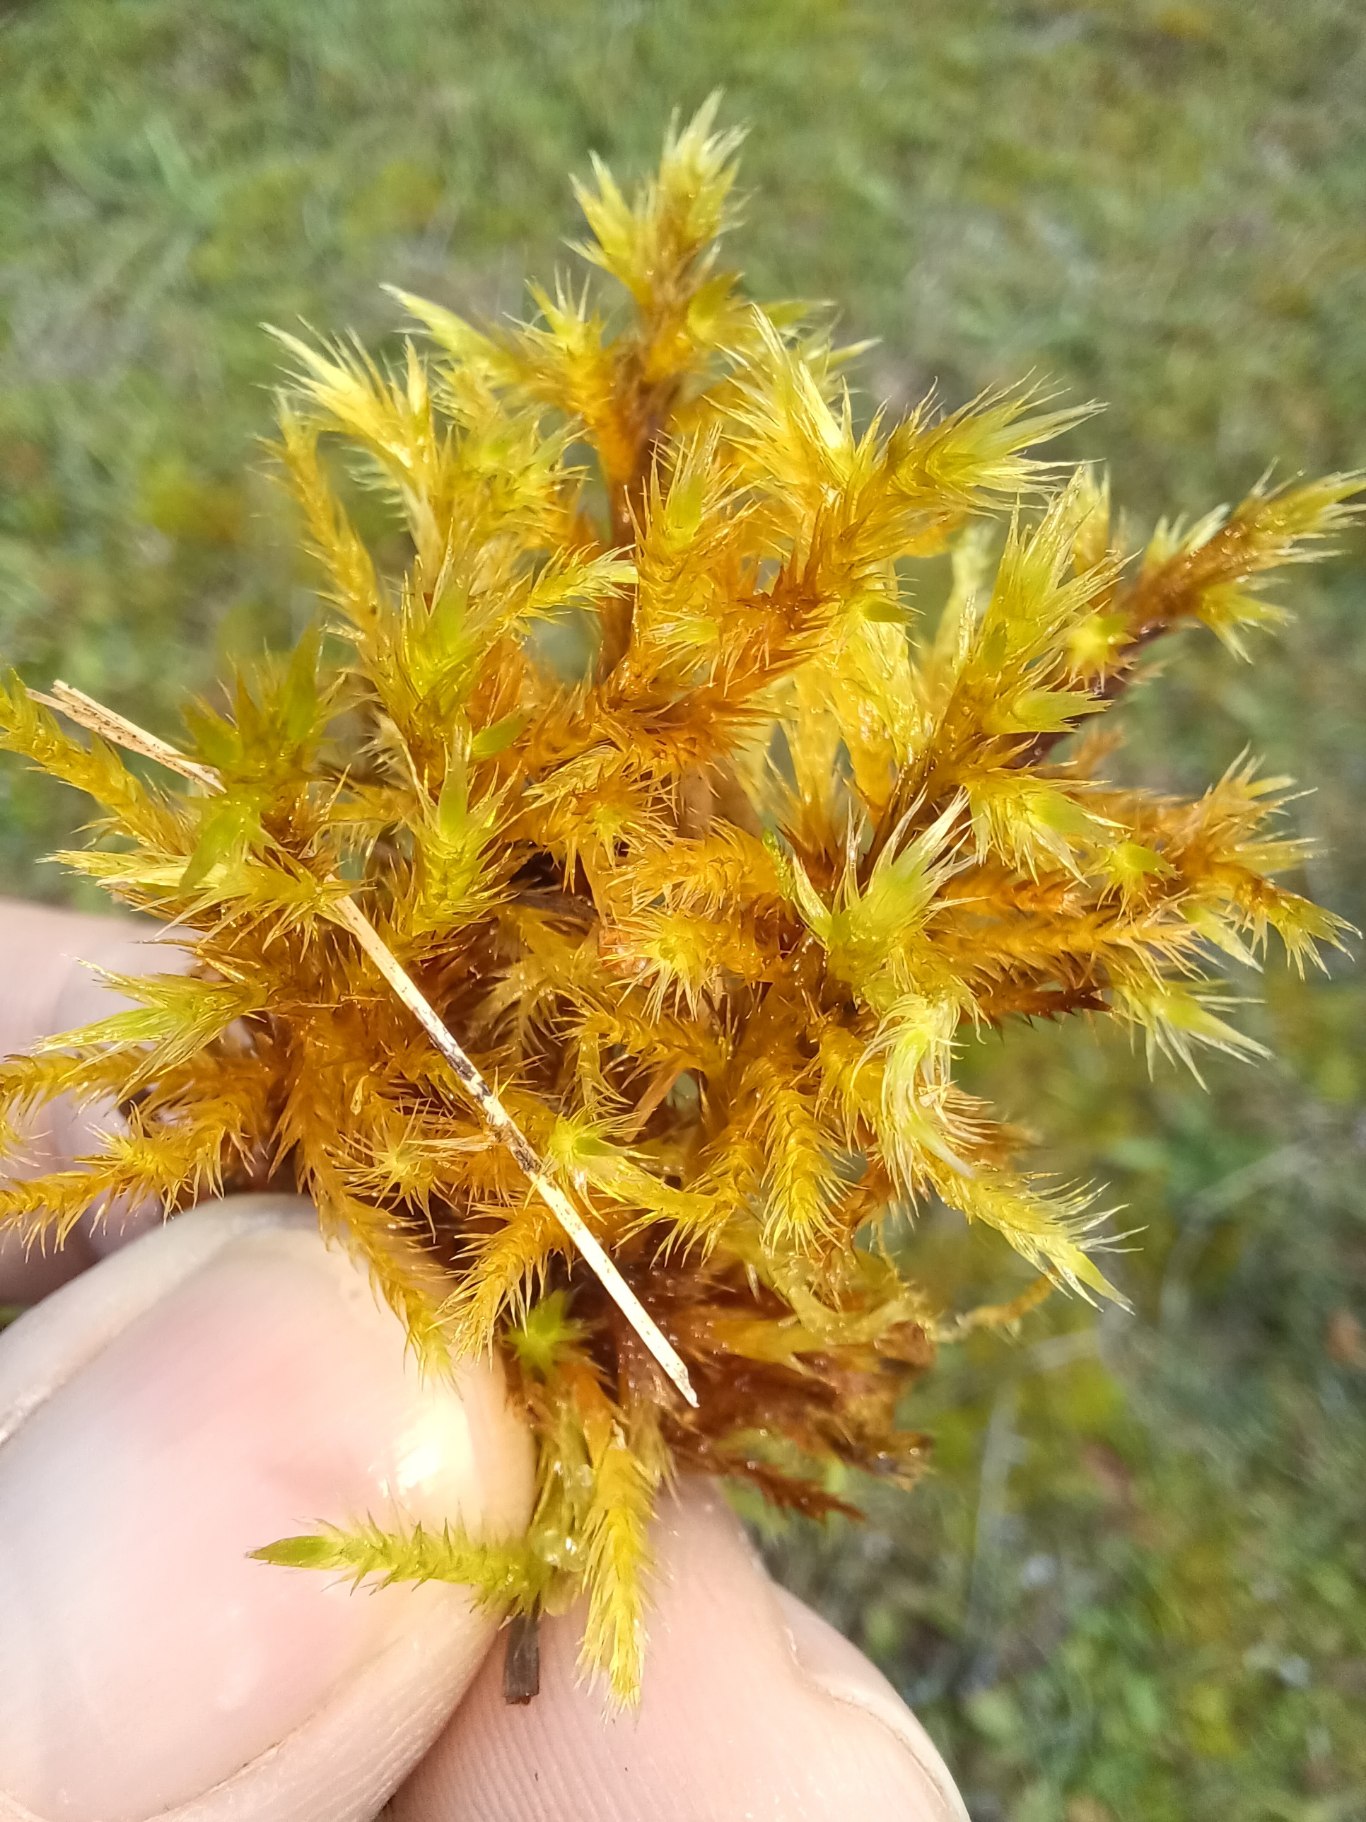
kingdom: Plantae
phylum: Bryophyta
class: Bryopsida
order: Hypnales
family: Amblystegiaceae
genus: Tomentypnum
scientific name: Tomentypnum nitens
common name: Glinsende kærmos
